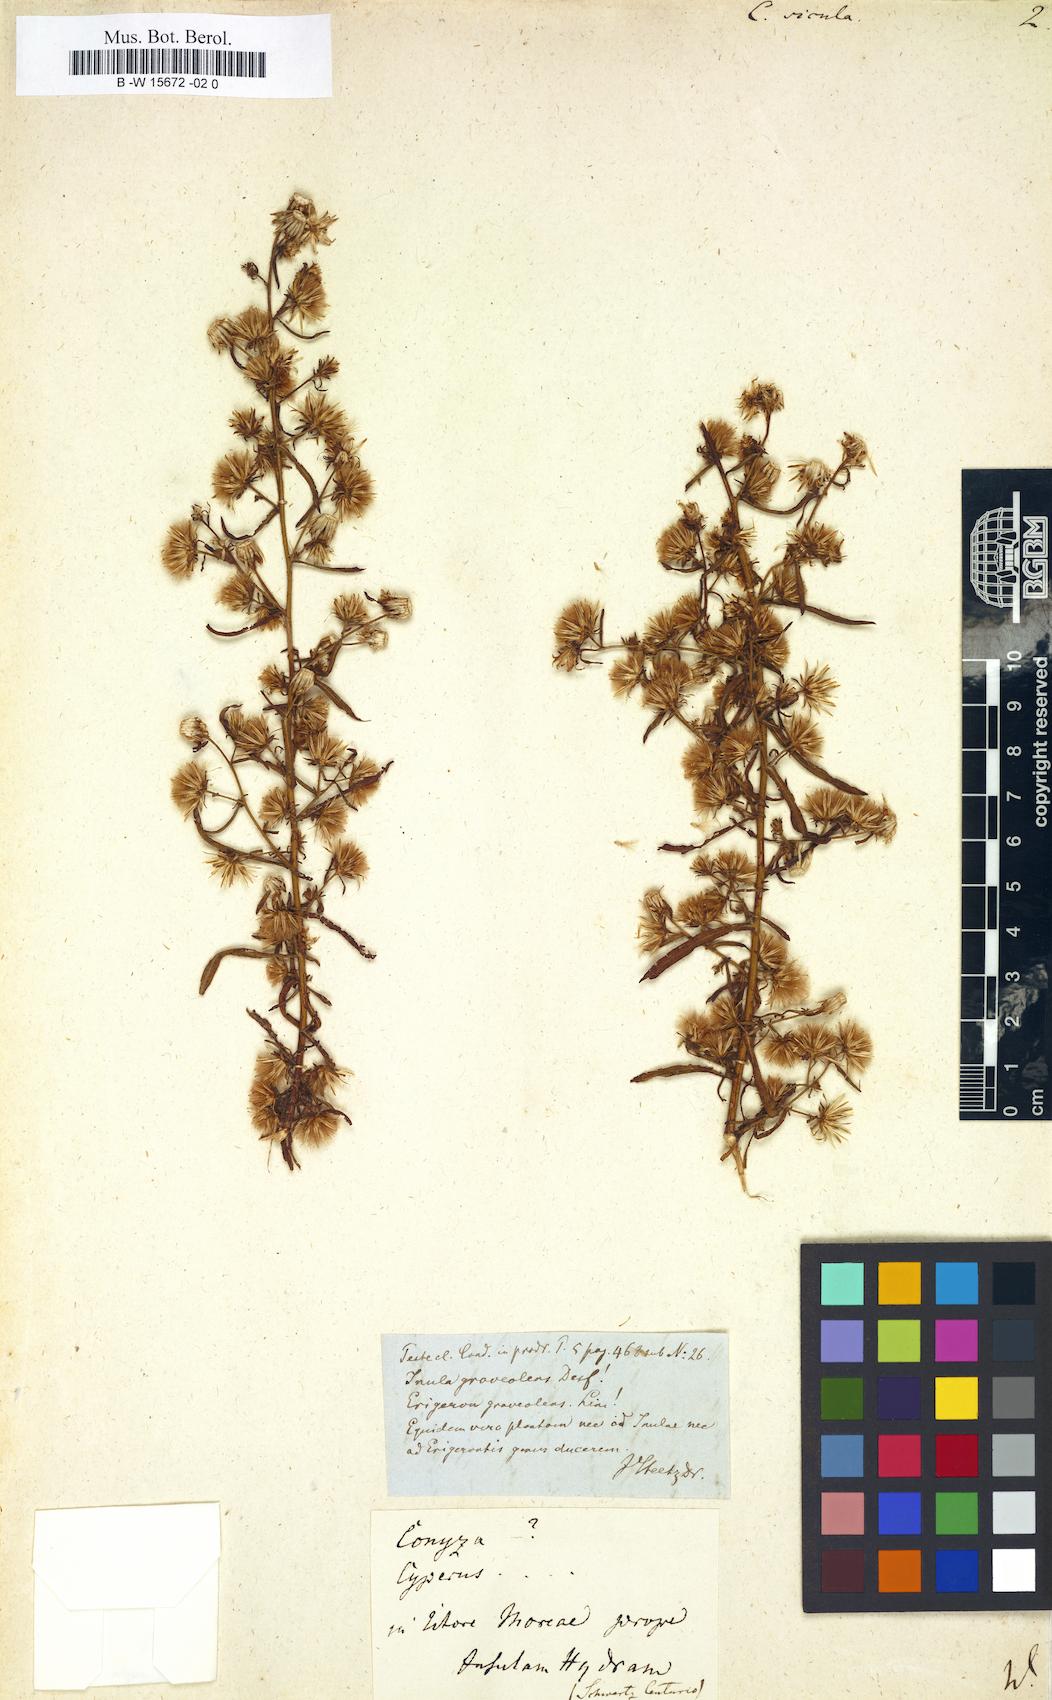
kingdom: Plantae
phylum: Tracheophyta
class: Magnoliopsida
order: Asterales
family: Asteraceae
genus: Pulicaria
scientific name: Pulicaria sicula
